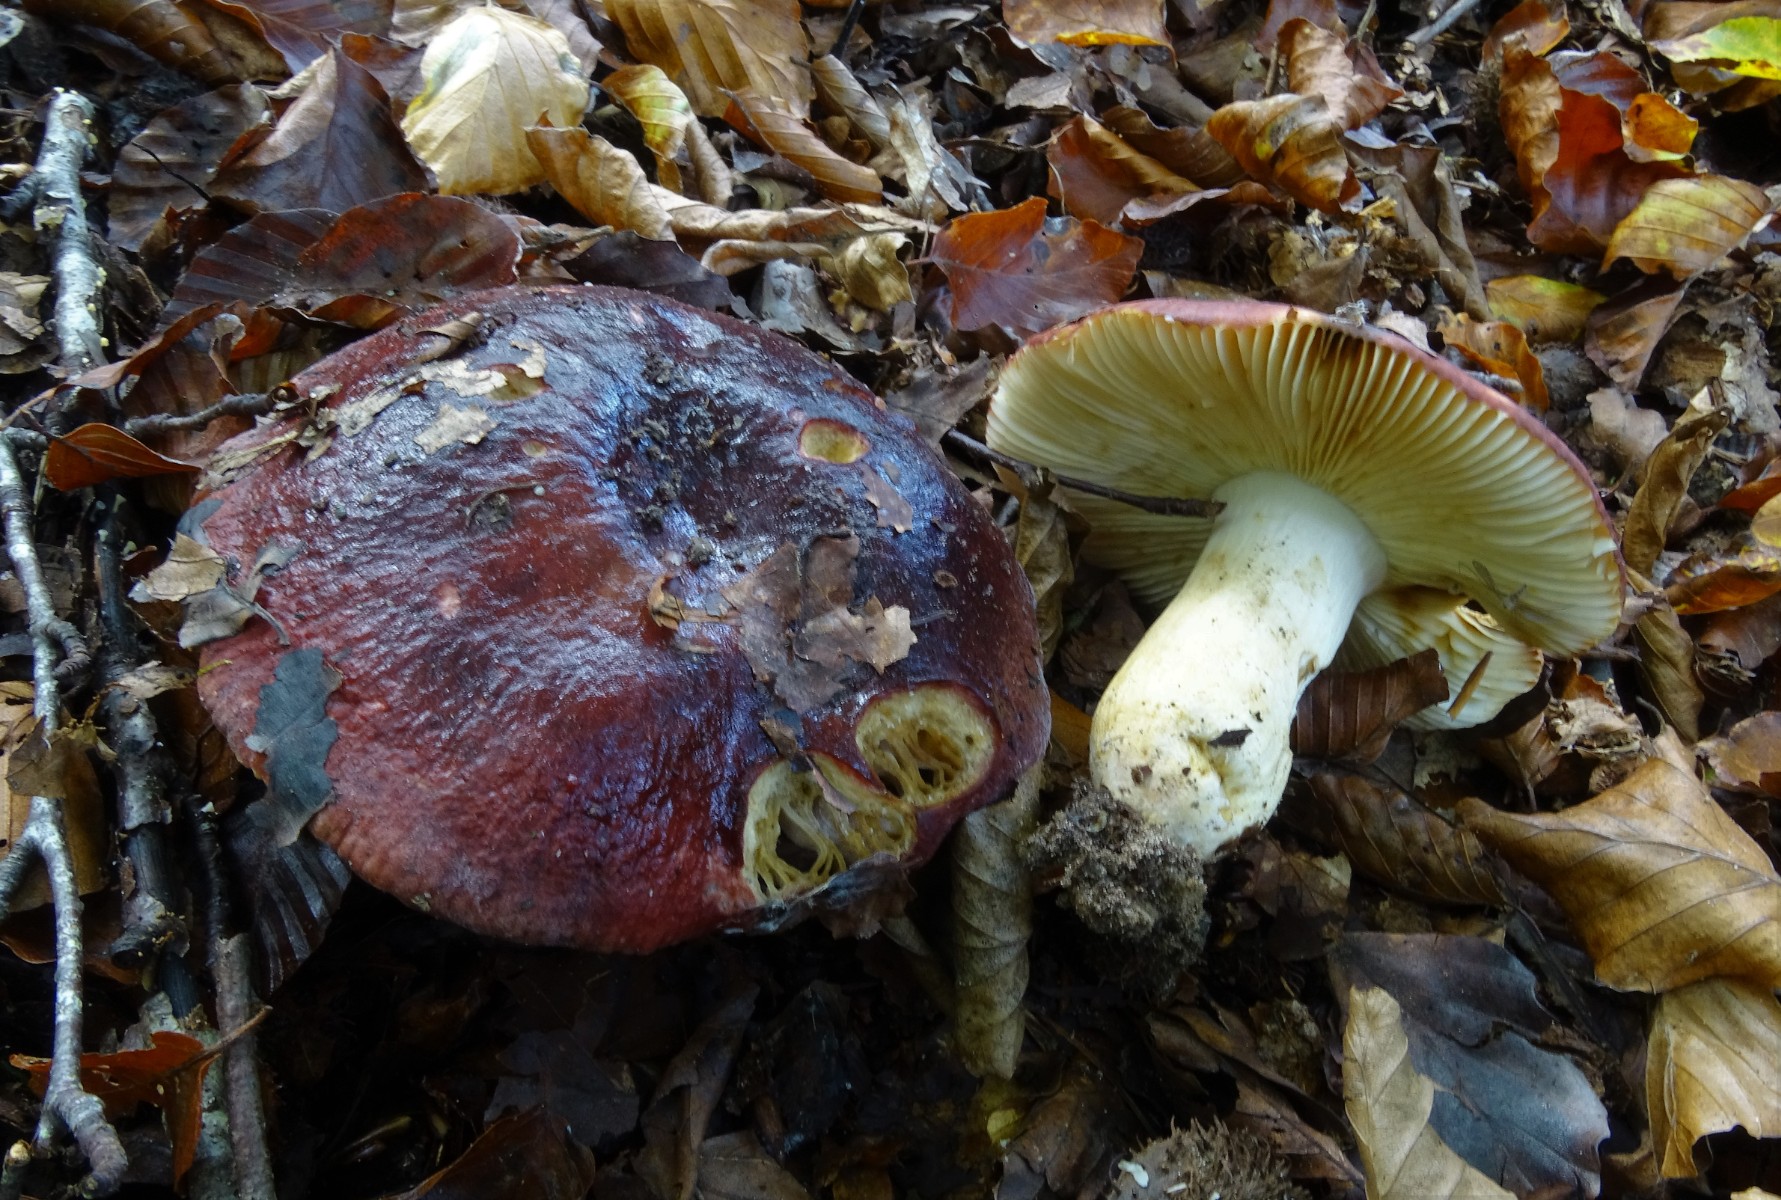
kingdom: Fungi
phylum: Basidiomycota
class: Agaricomycetes
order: Russulales
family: Russulaceae
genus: Russula
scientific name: Russula viscida
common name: knippe-skørhat
